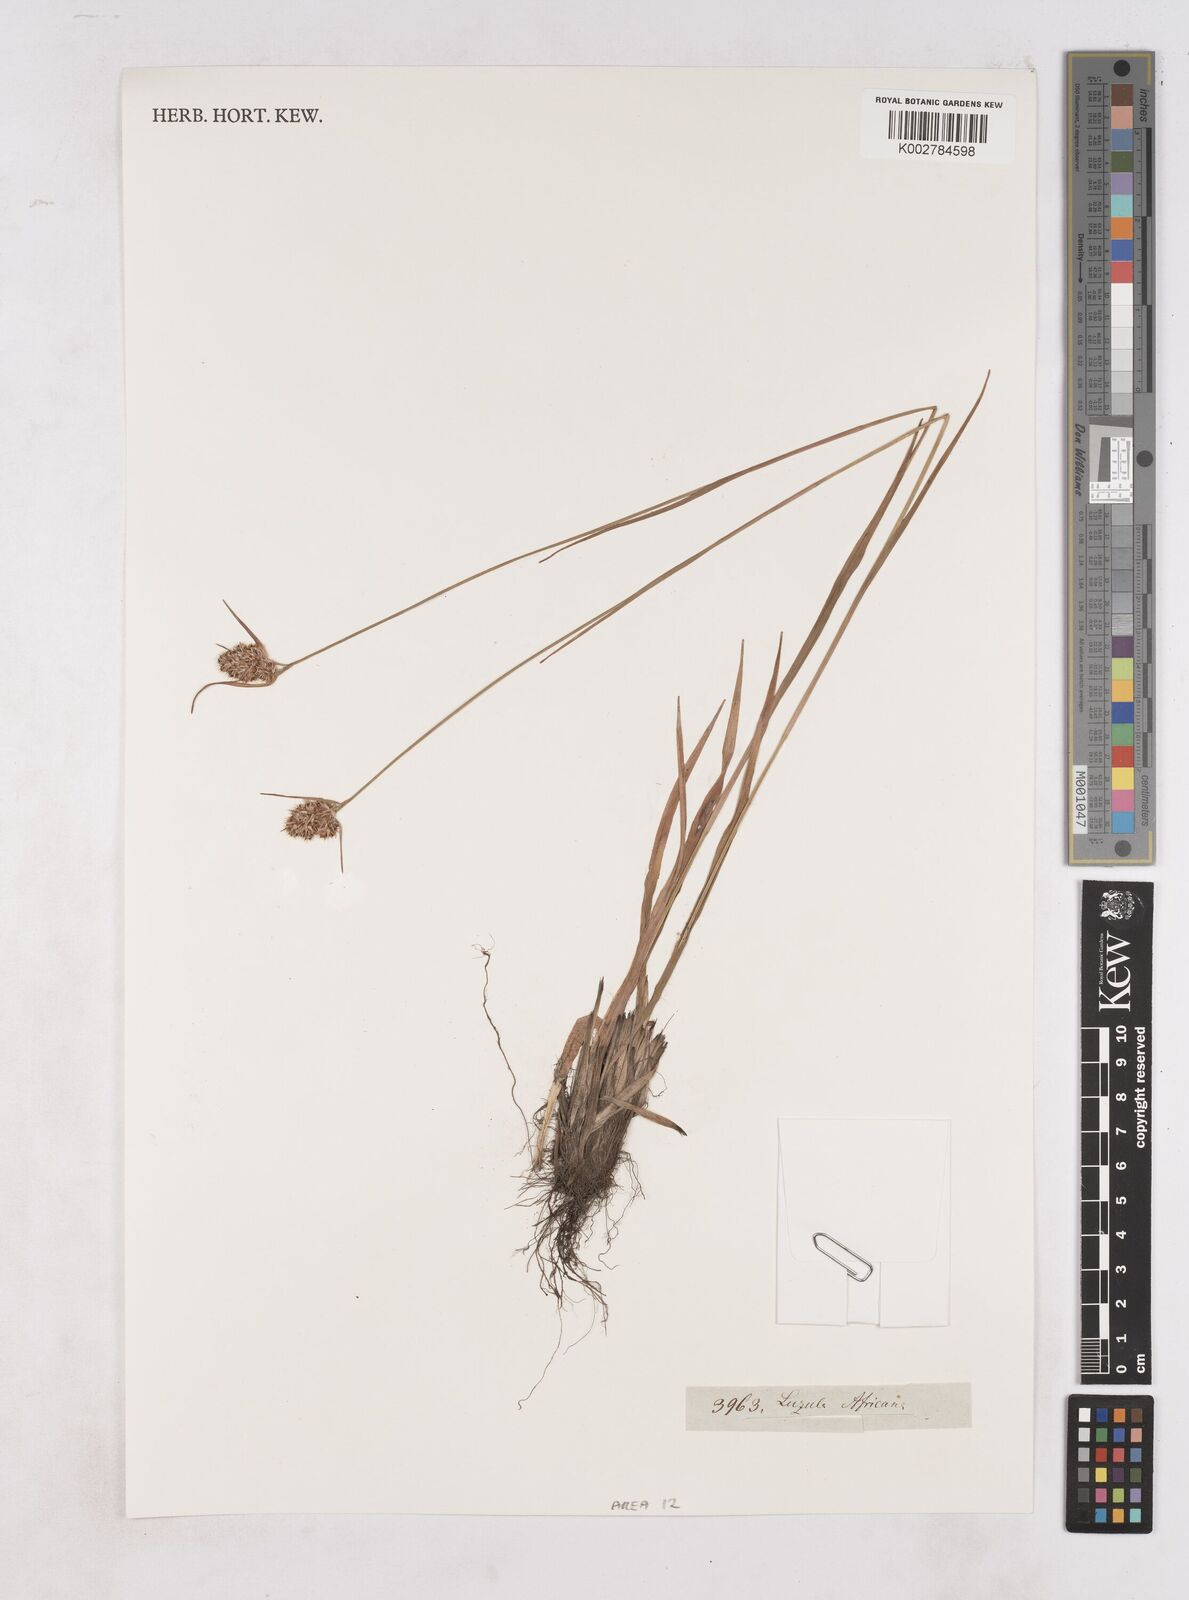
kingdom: Plantae
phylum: Tracheophyta
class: Liliopsida
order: Poales
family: Juncaceae
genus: Luzula
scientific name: Luzula africana
